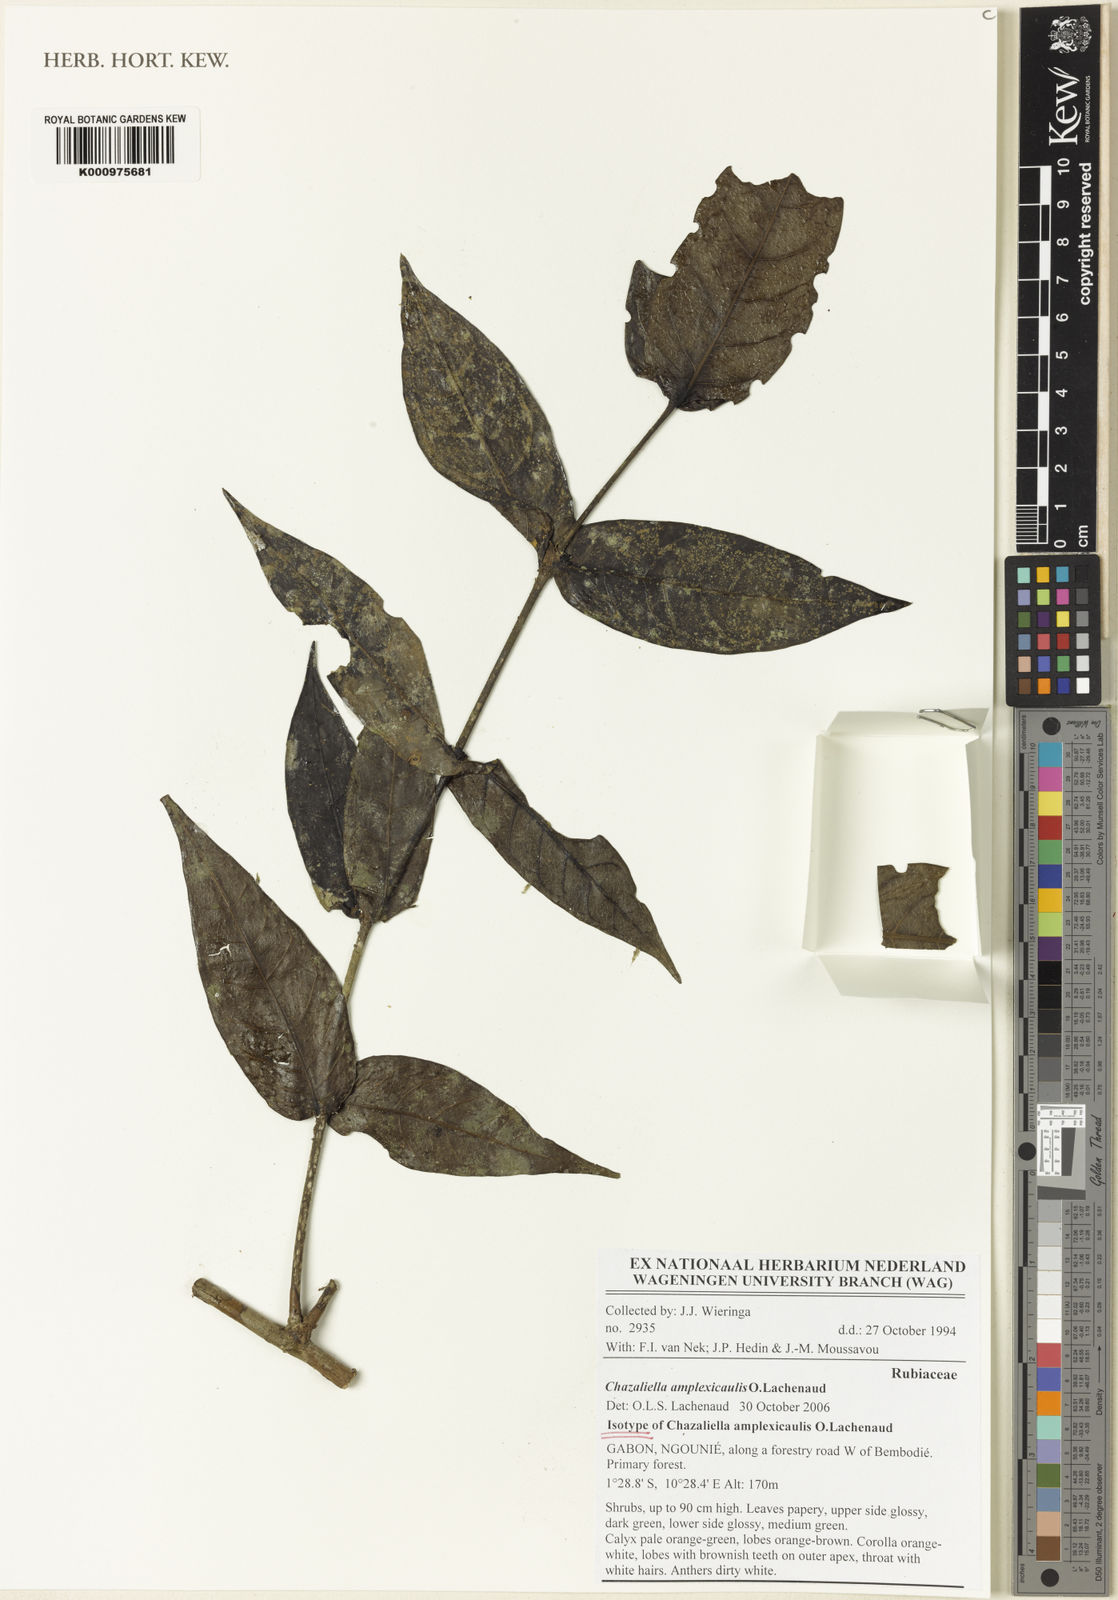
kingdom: Plantae
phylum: Tracheophyta
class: Magnoliopsida
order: Gentianales
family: Rubiaceae
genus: Eumachia
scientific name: Eumachia
